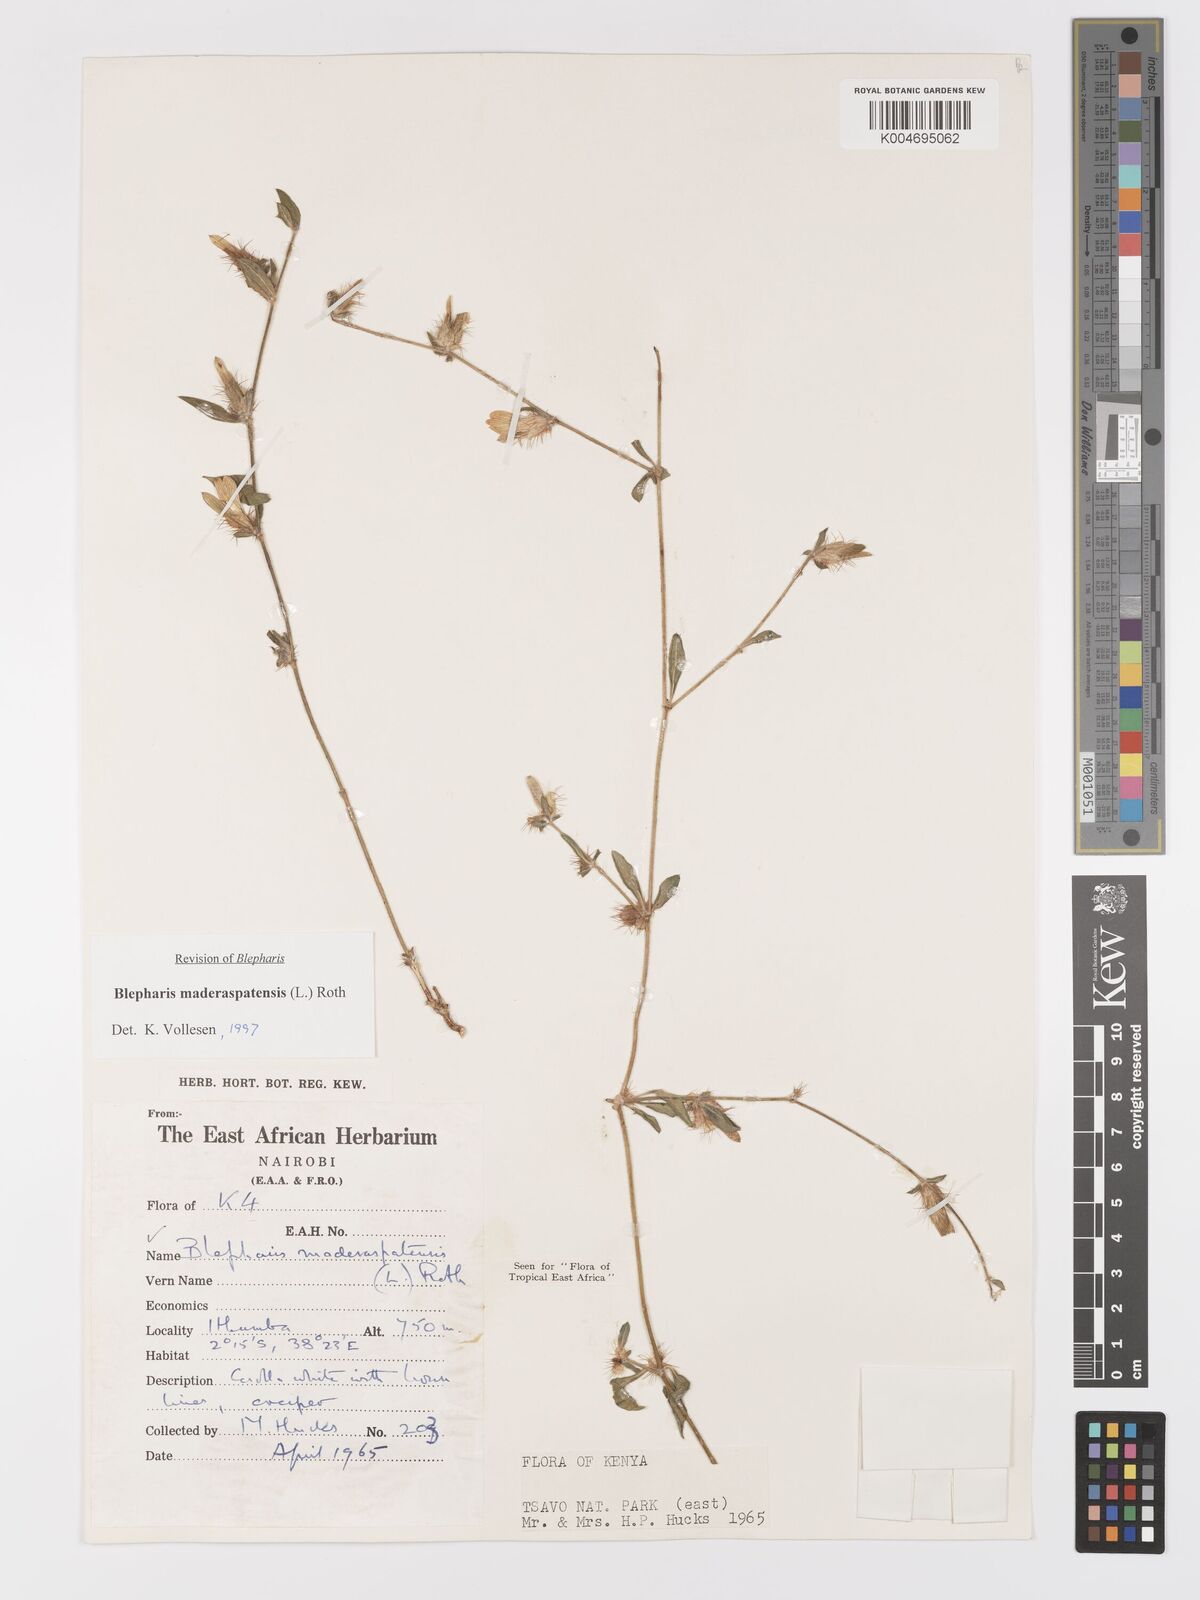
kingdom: Plantae
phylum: Tracheophyta
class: Magnoliopsida
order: Lamiales
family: Acanthaceae
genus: Blepharis
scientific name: Blepharis maderaspatensis
